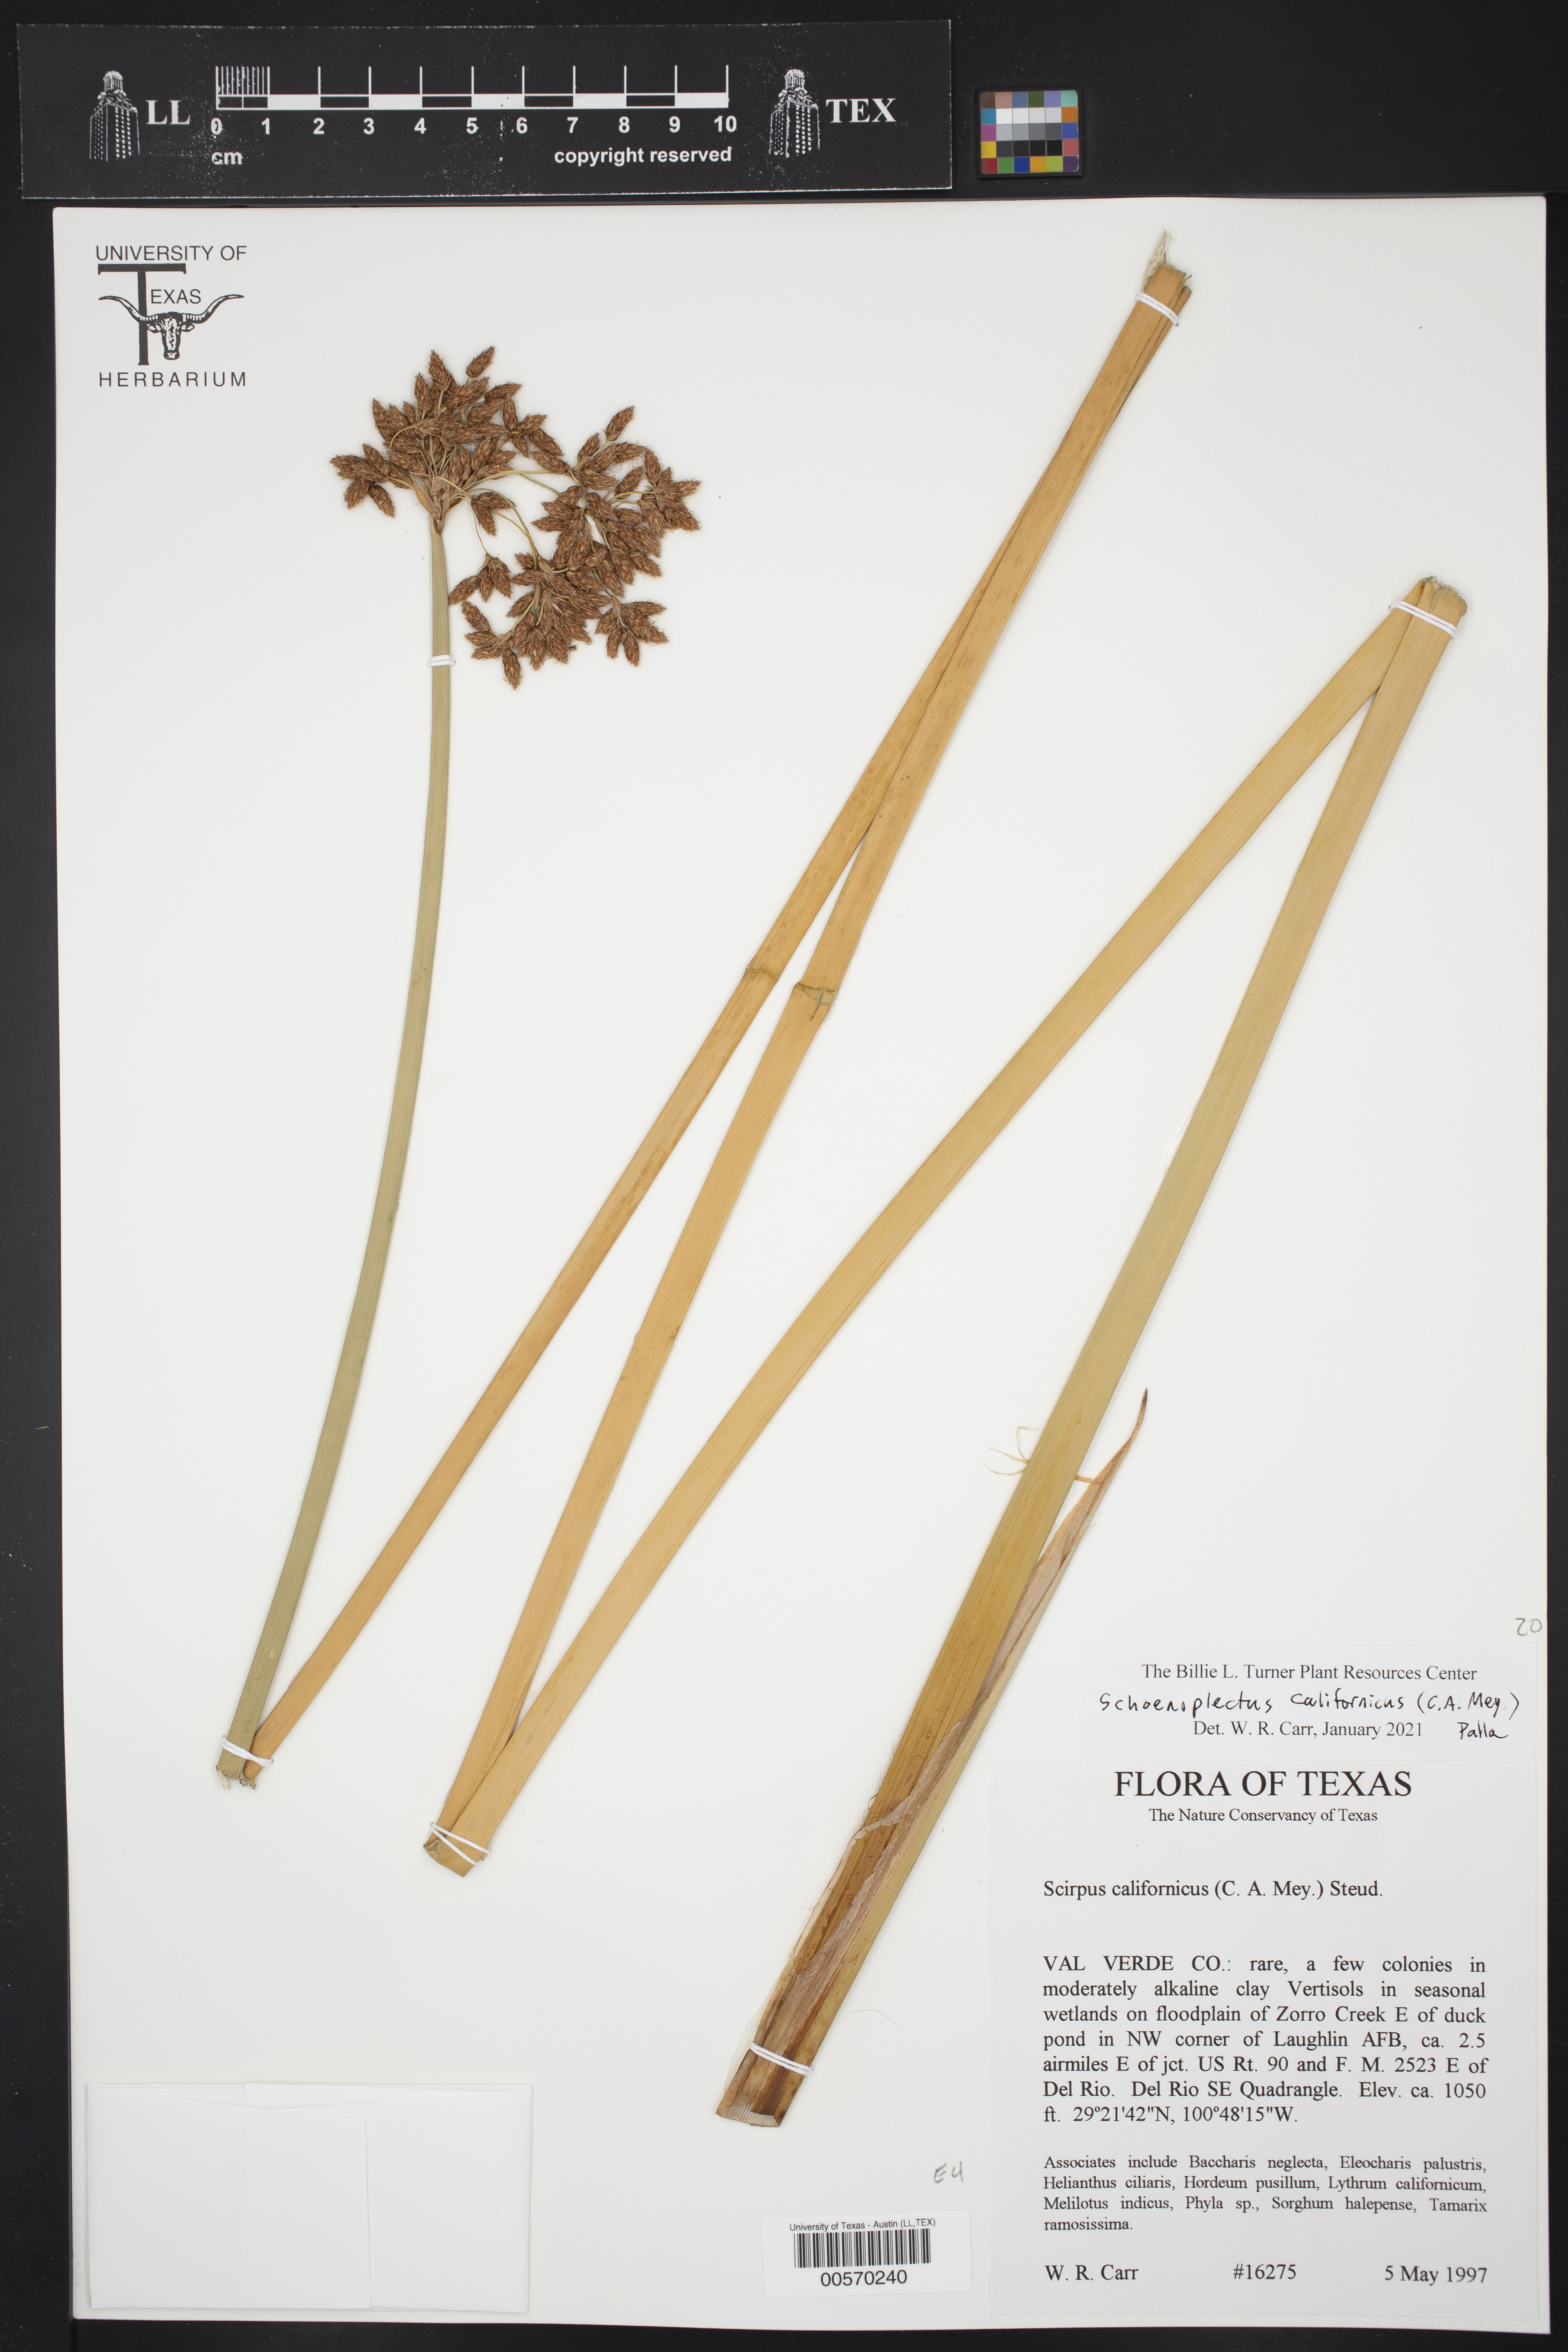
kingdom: Plantae
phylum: Tracheophyta
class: Liliopsida
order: Poales
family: Cyperaceae
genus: Schoenoplectus
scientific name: Schoenoplectus californicus
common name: California bulrush
